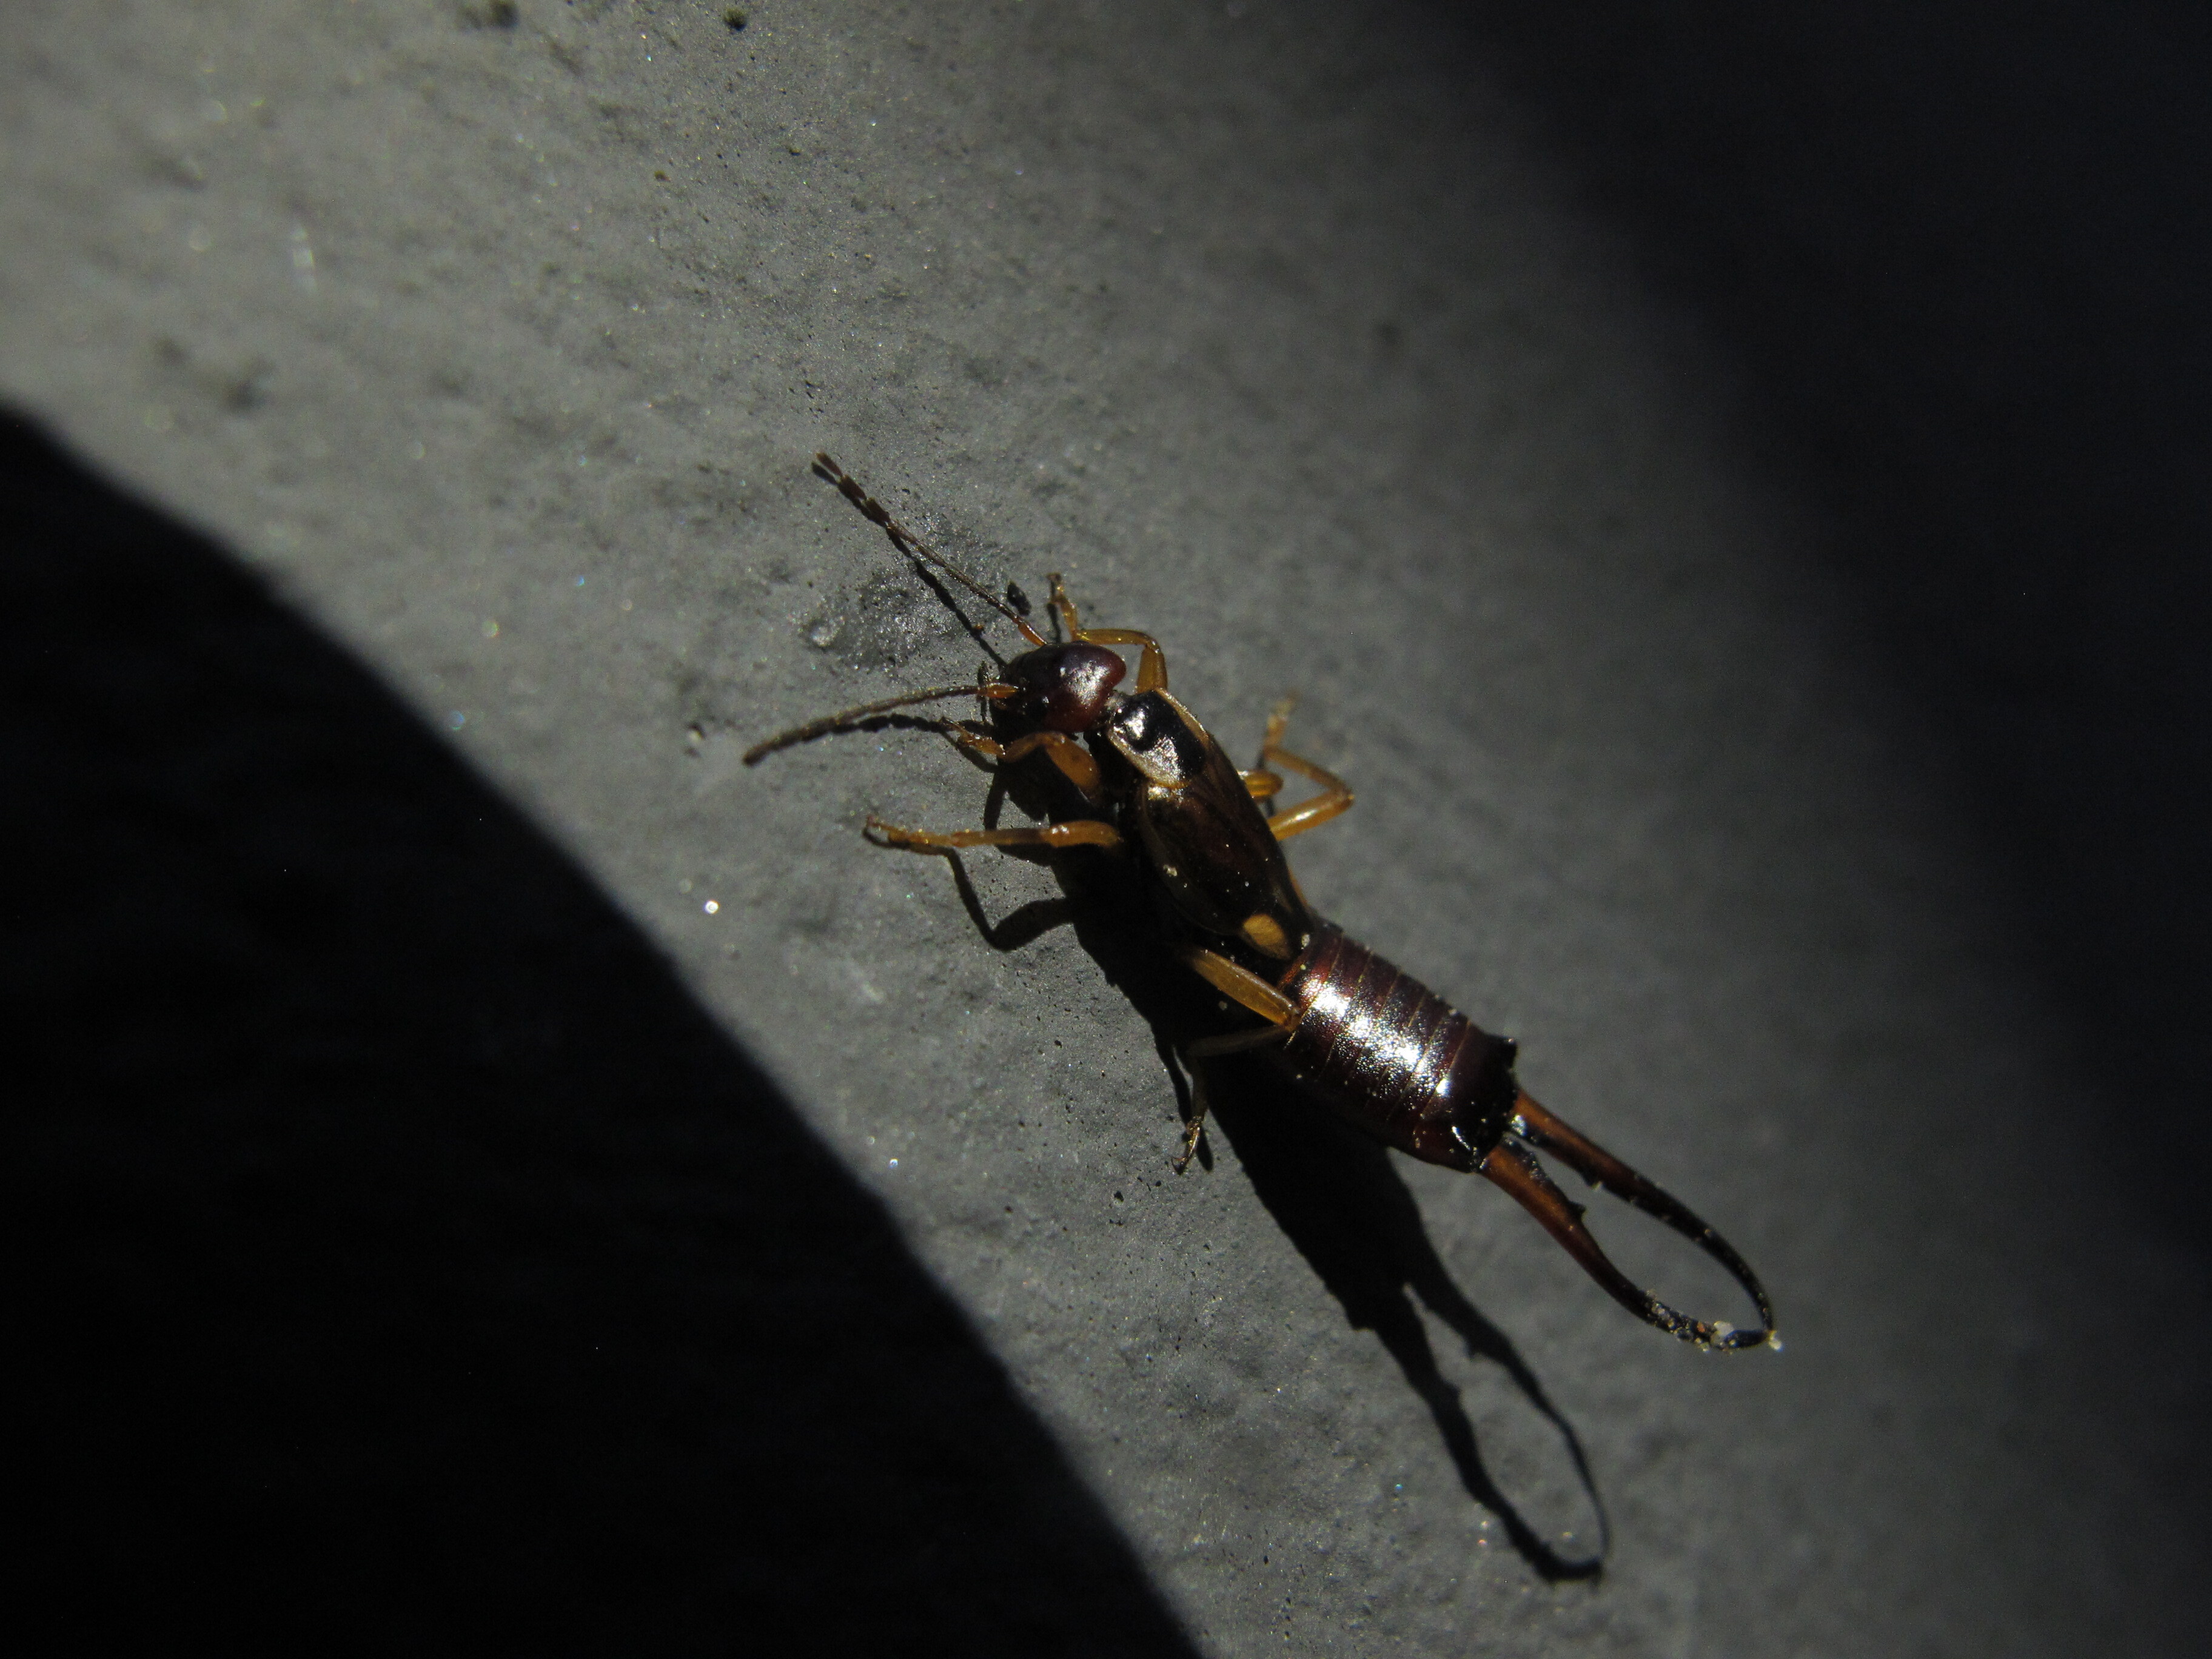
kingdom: Animalia
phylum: Arthropoda
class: Insecta
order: Dermaptera
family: Forficulidae
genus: Forficula
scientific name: Forficula auricularia
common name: European earwig
